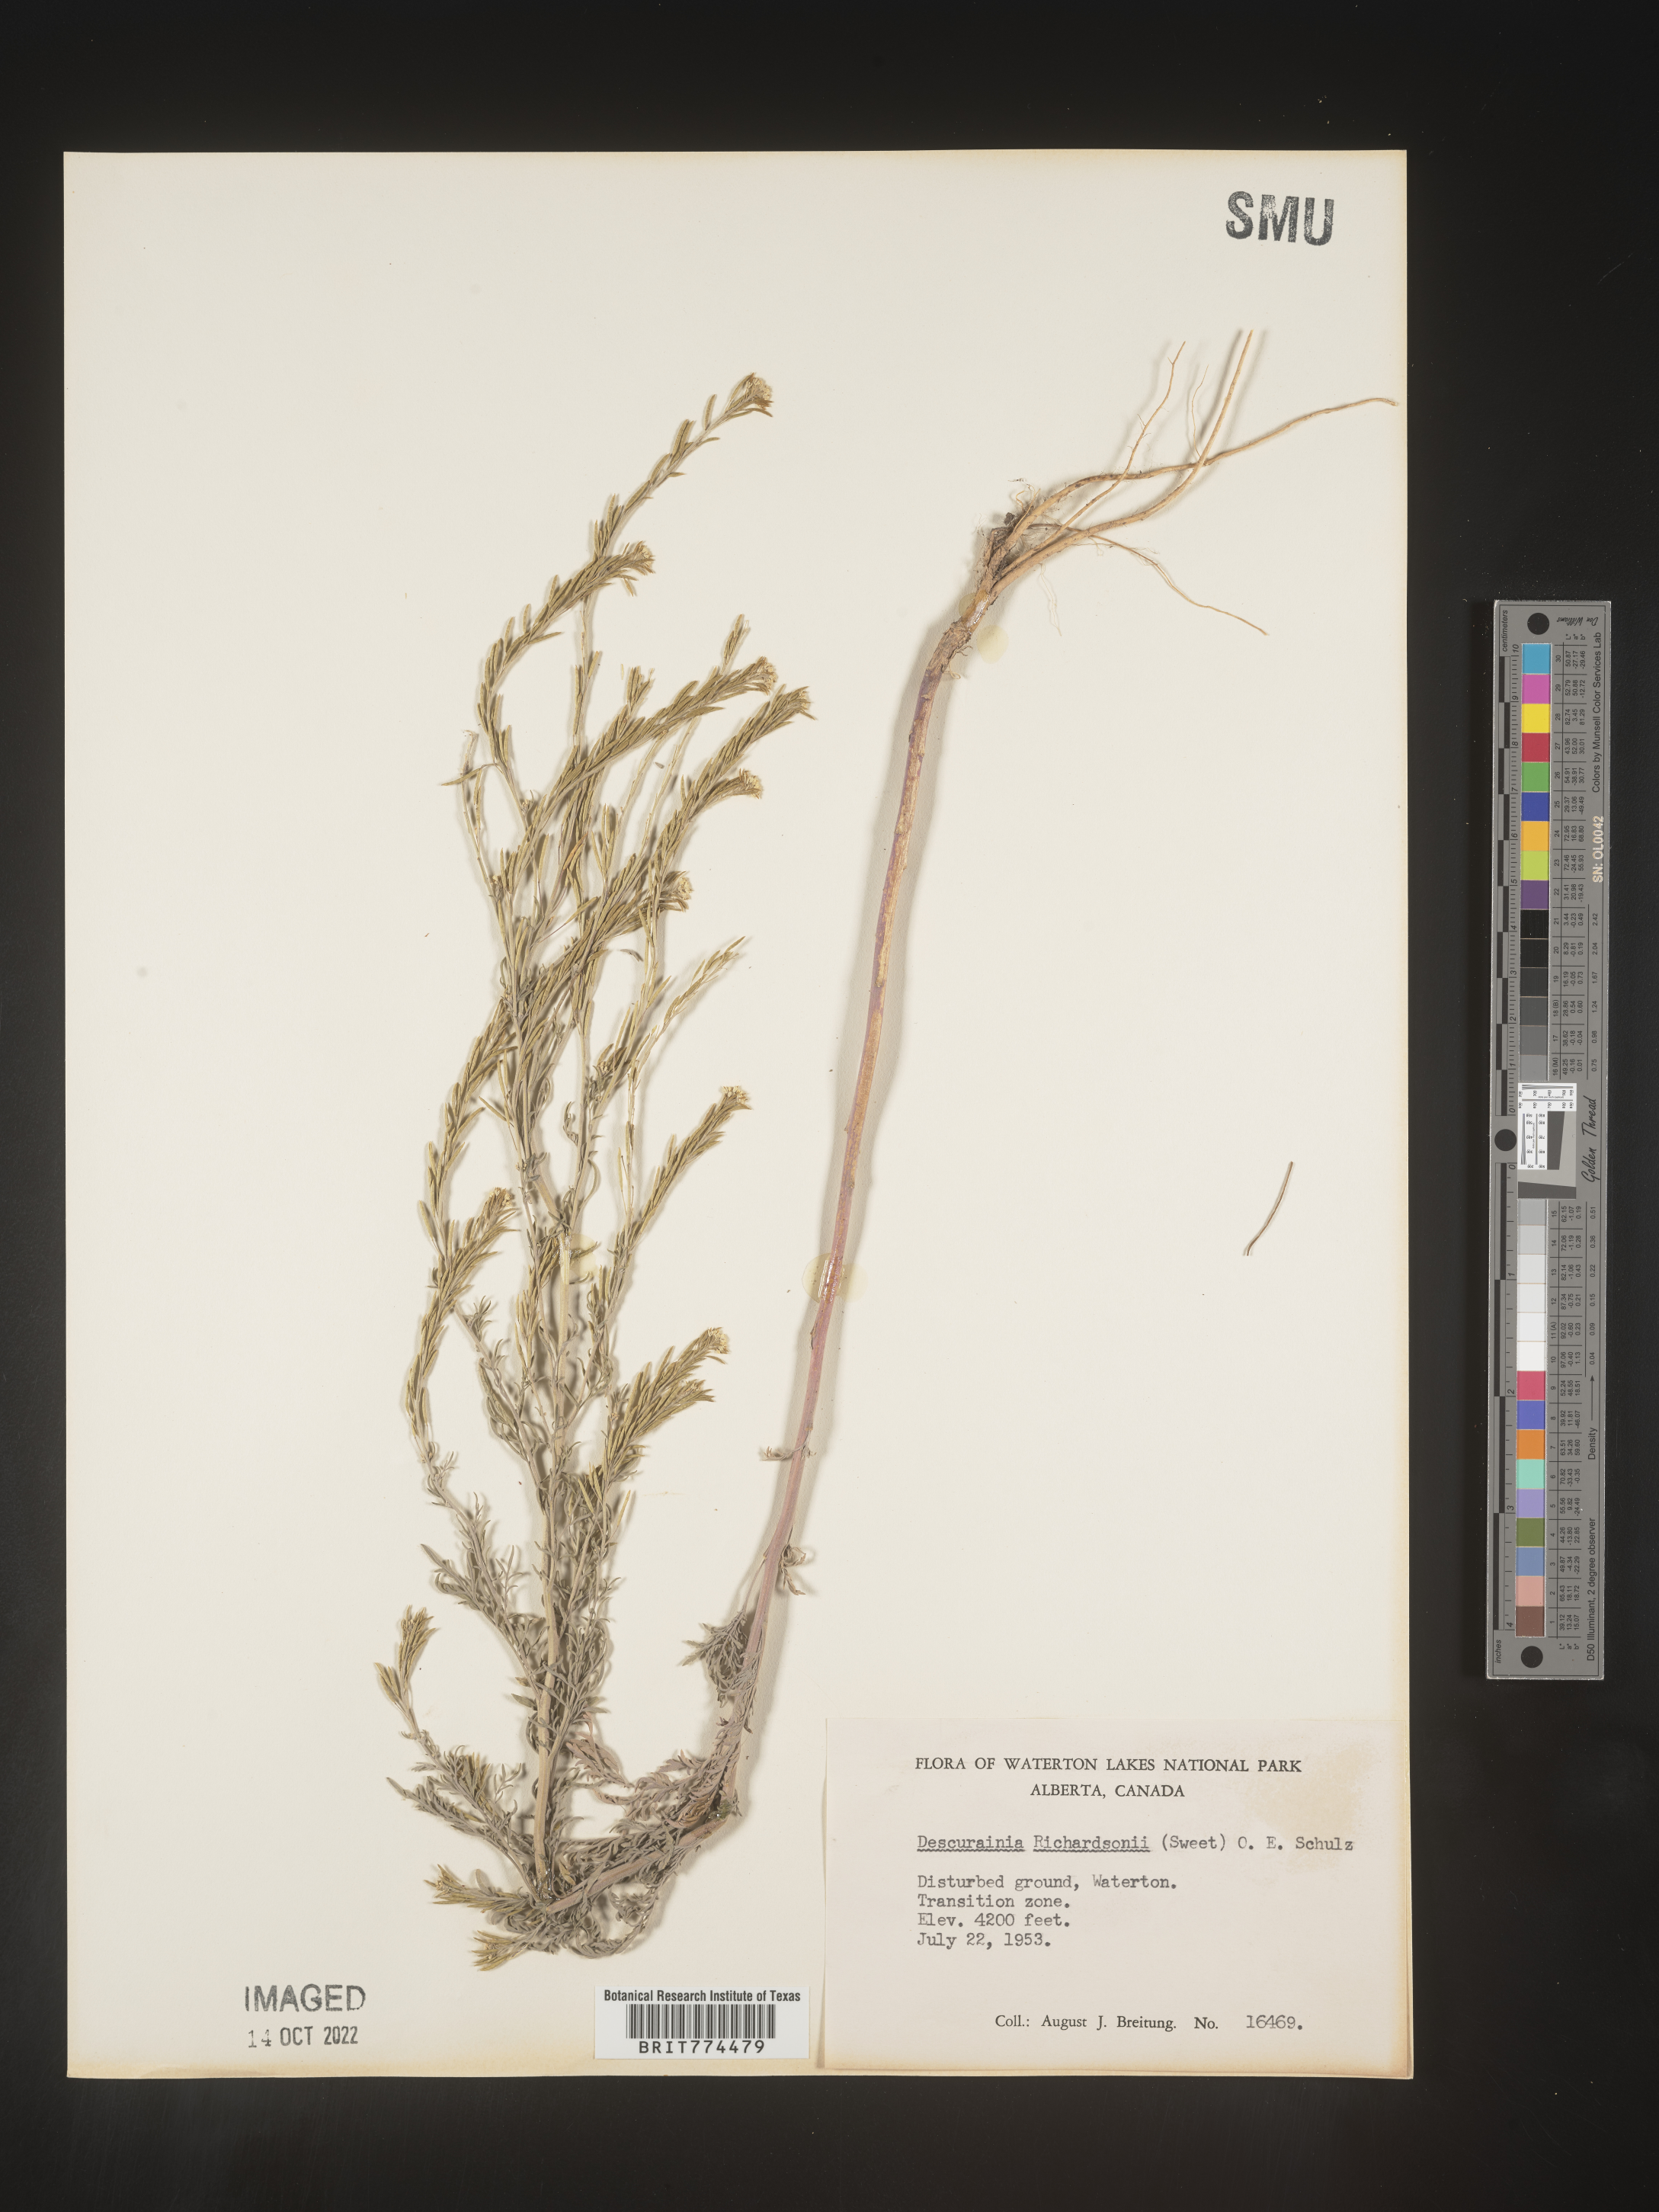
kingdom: Plantae
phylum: Tracheophyta
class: Magnoliopsida
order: Brassicales
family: Brassicaceae
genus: Descurainia
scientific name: Descurainia
